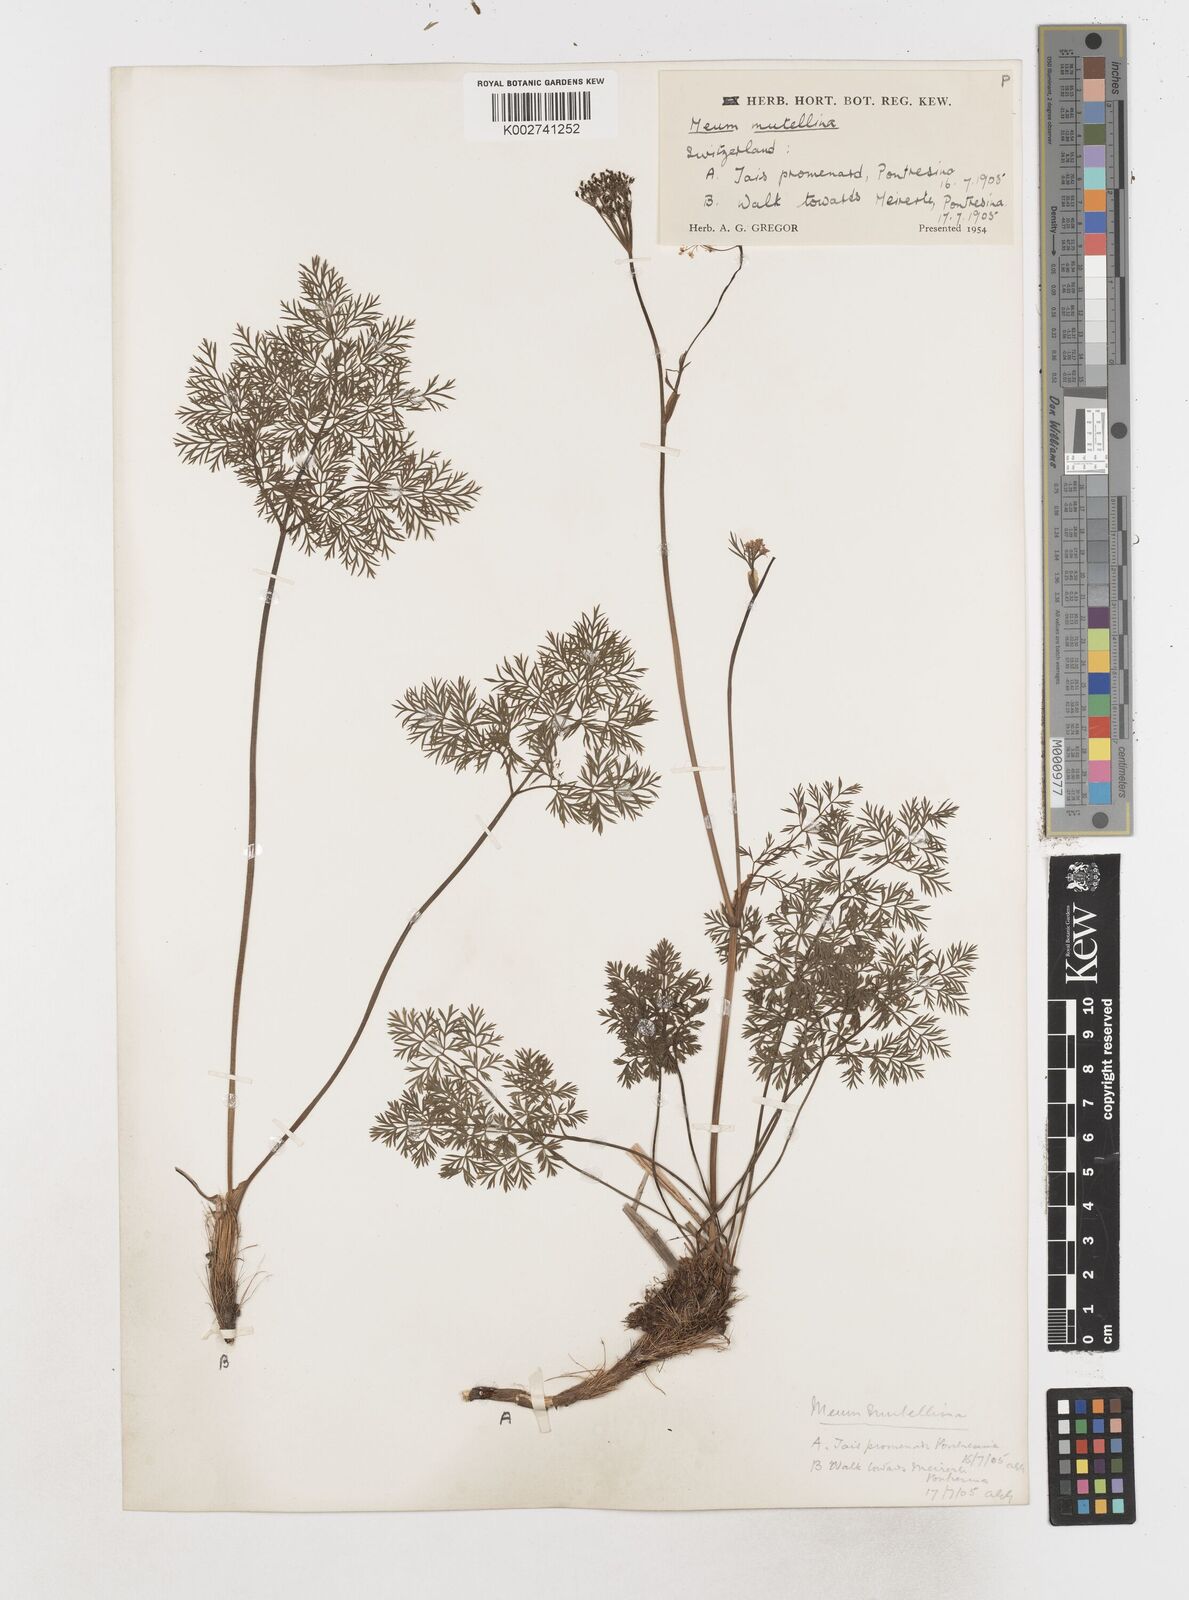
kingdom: Plantae
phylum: Tracheophyta
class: Magnoliopsida
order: Apiales
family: Apiaceae
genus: Mutellina
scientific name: Mutellina adonidifolia
